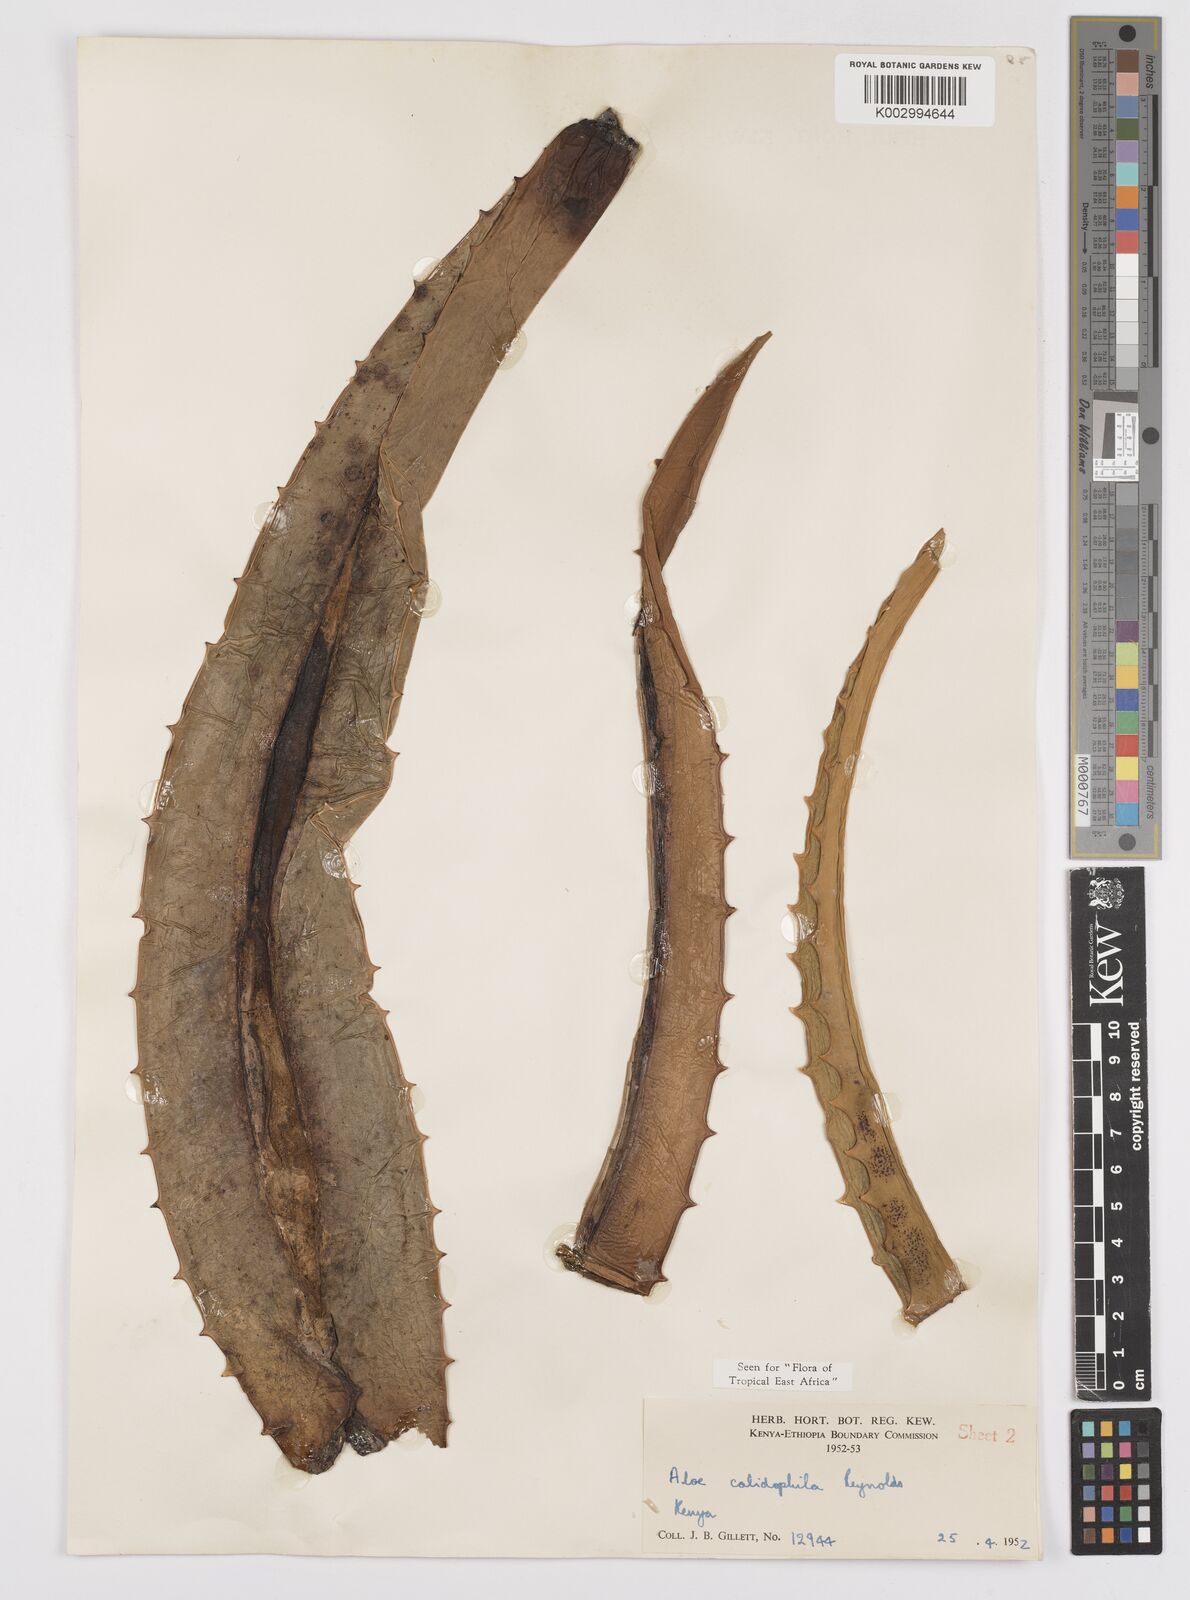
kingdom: Plantae
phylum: Tracheophyta
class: Liliopsida
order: Asparagales
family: Asphodelaceae
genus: Aloe
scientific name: Aloe calidophila
